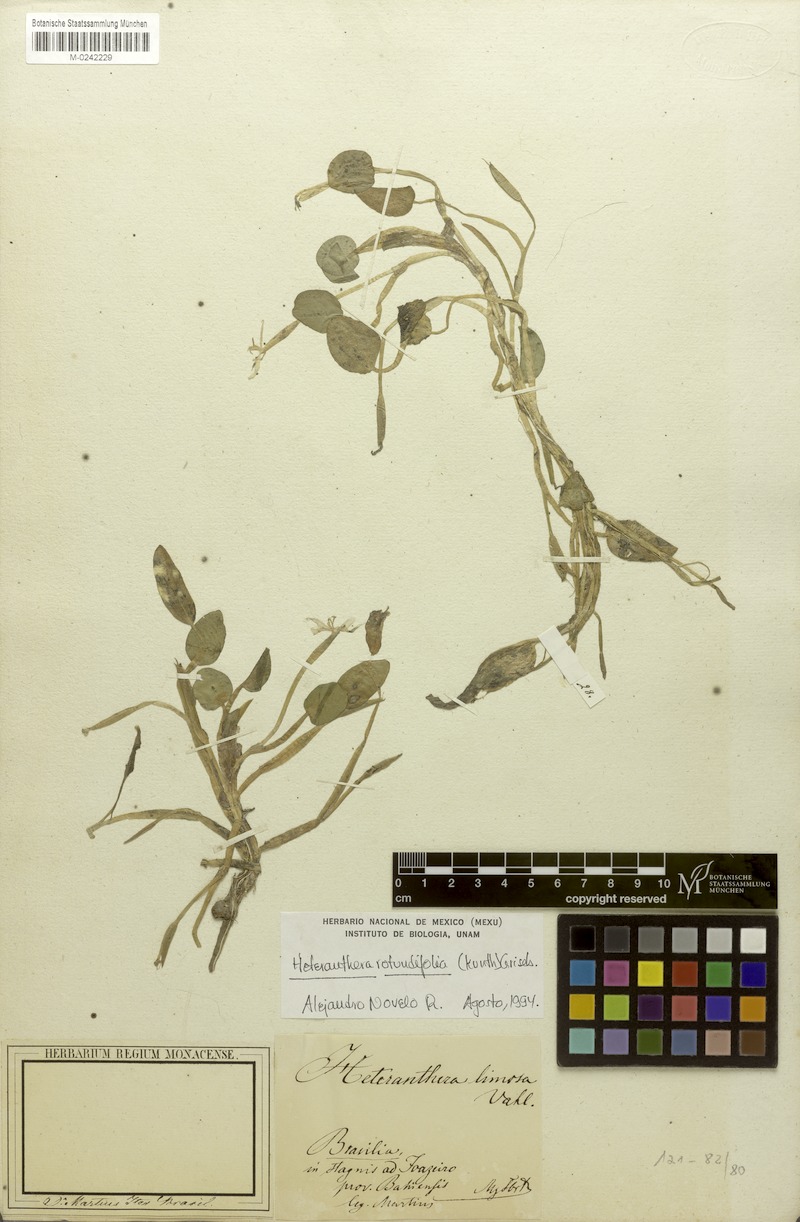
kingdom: Plantae
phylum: Tracheophyta
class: Liliopsida
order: Commelinales
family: Pontederiaceae
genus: Heteranthera
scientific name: Heteranthera rotundifolia
